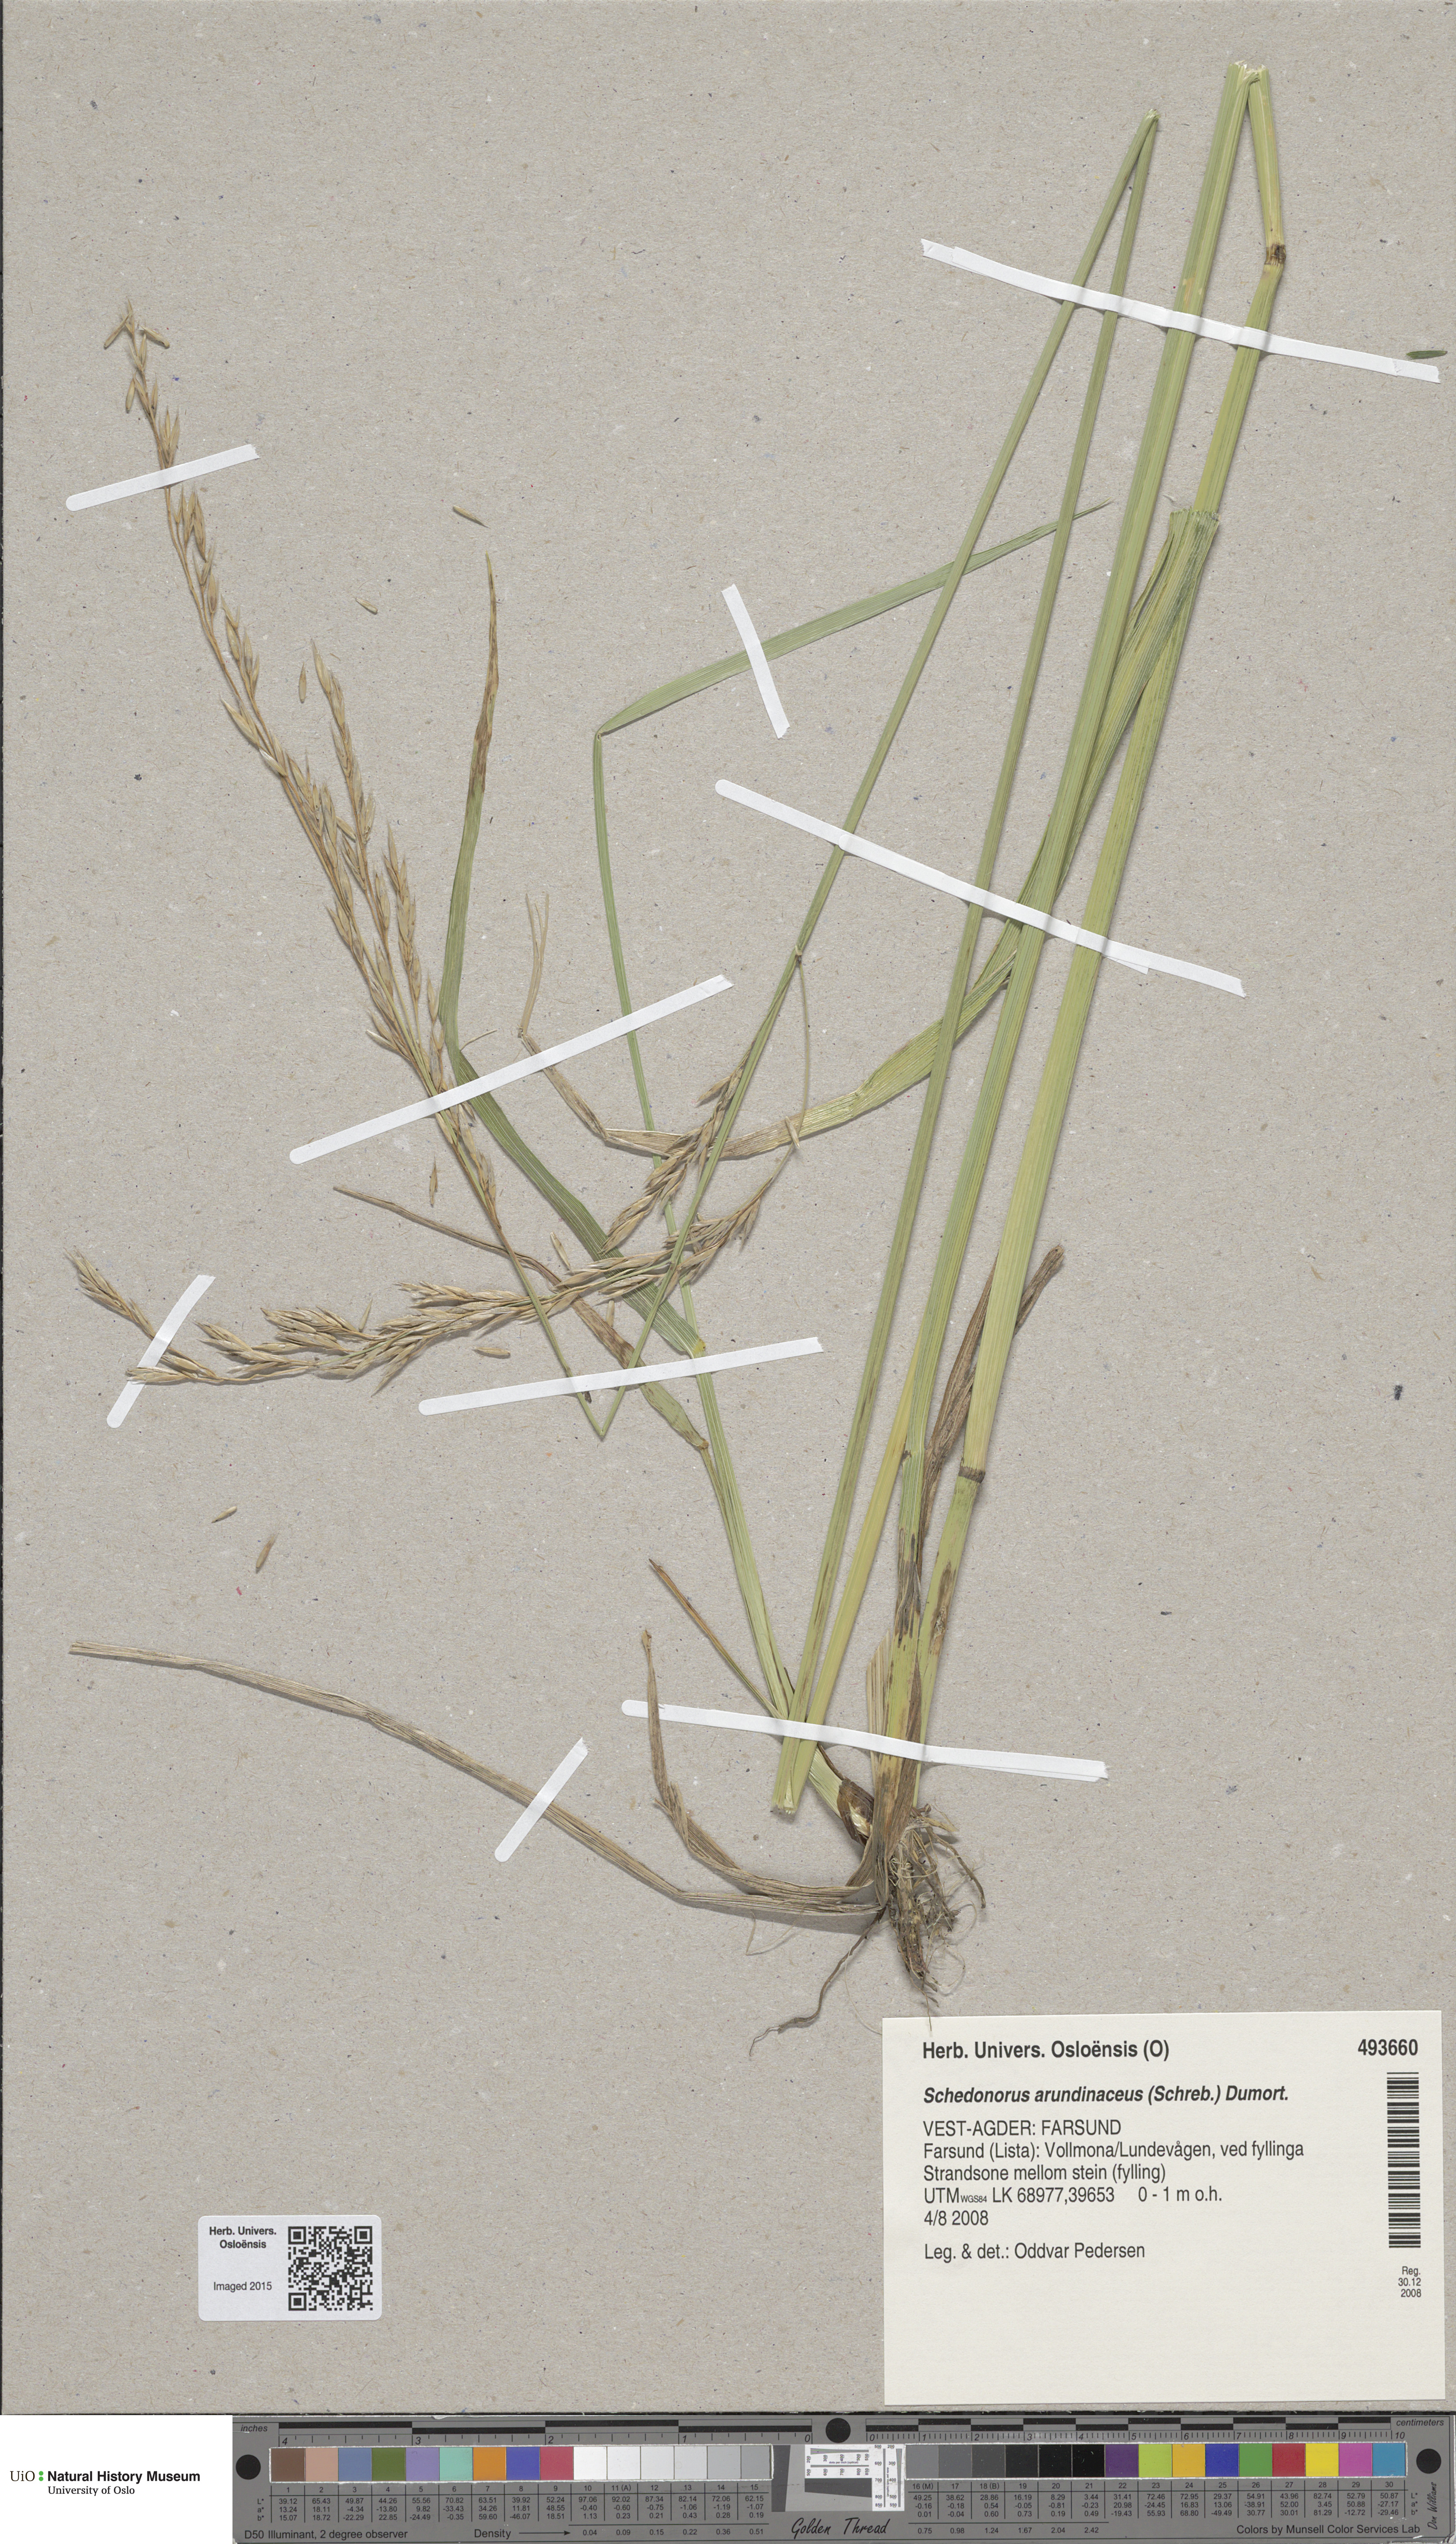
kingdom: Plantae
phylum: Tracheophyta
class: Liliopsida
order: Poales
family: Poaceae
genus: Lolium
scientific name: Lolium arundinaceum
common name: Reed fescue
